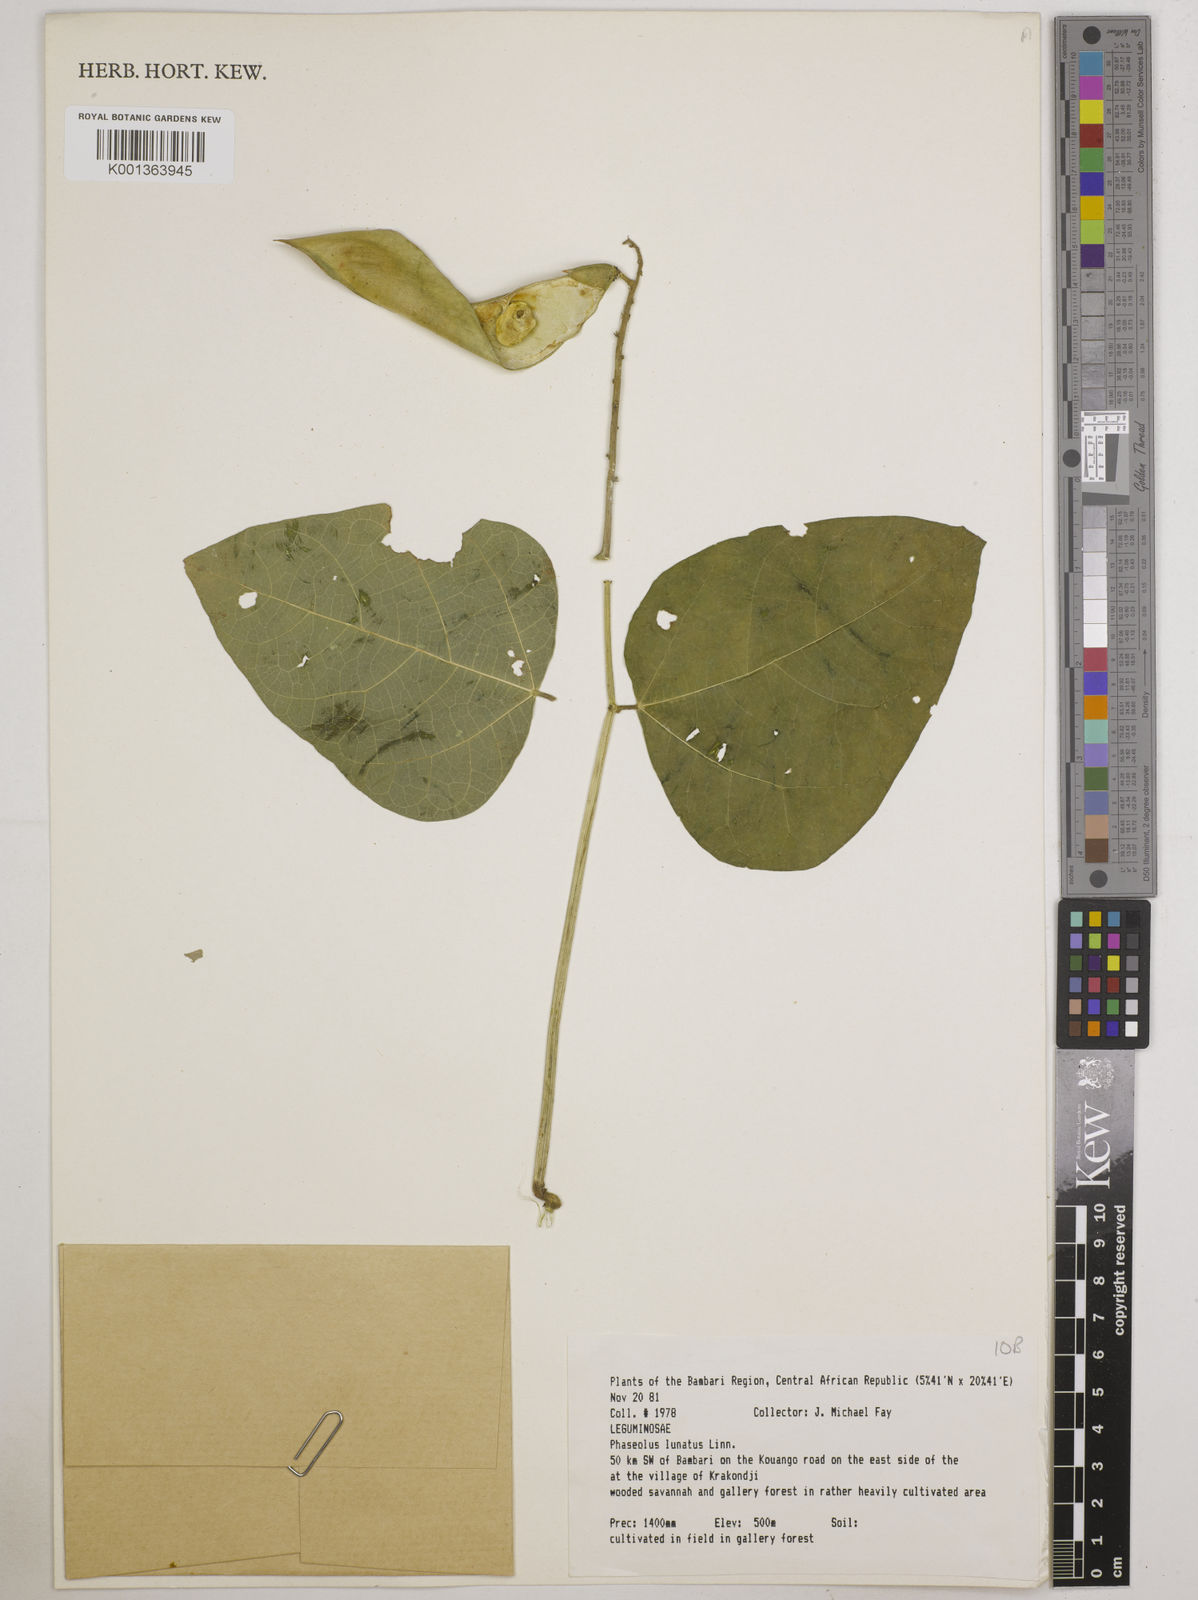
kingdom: Plantae
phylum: Tracheophyta
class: Magnoliopsida
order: Fabales
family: Fabaceae
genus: Phaseolus
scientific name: Phaseolus lunatus
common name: Sieva bean
